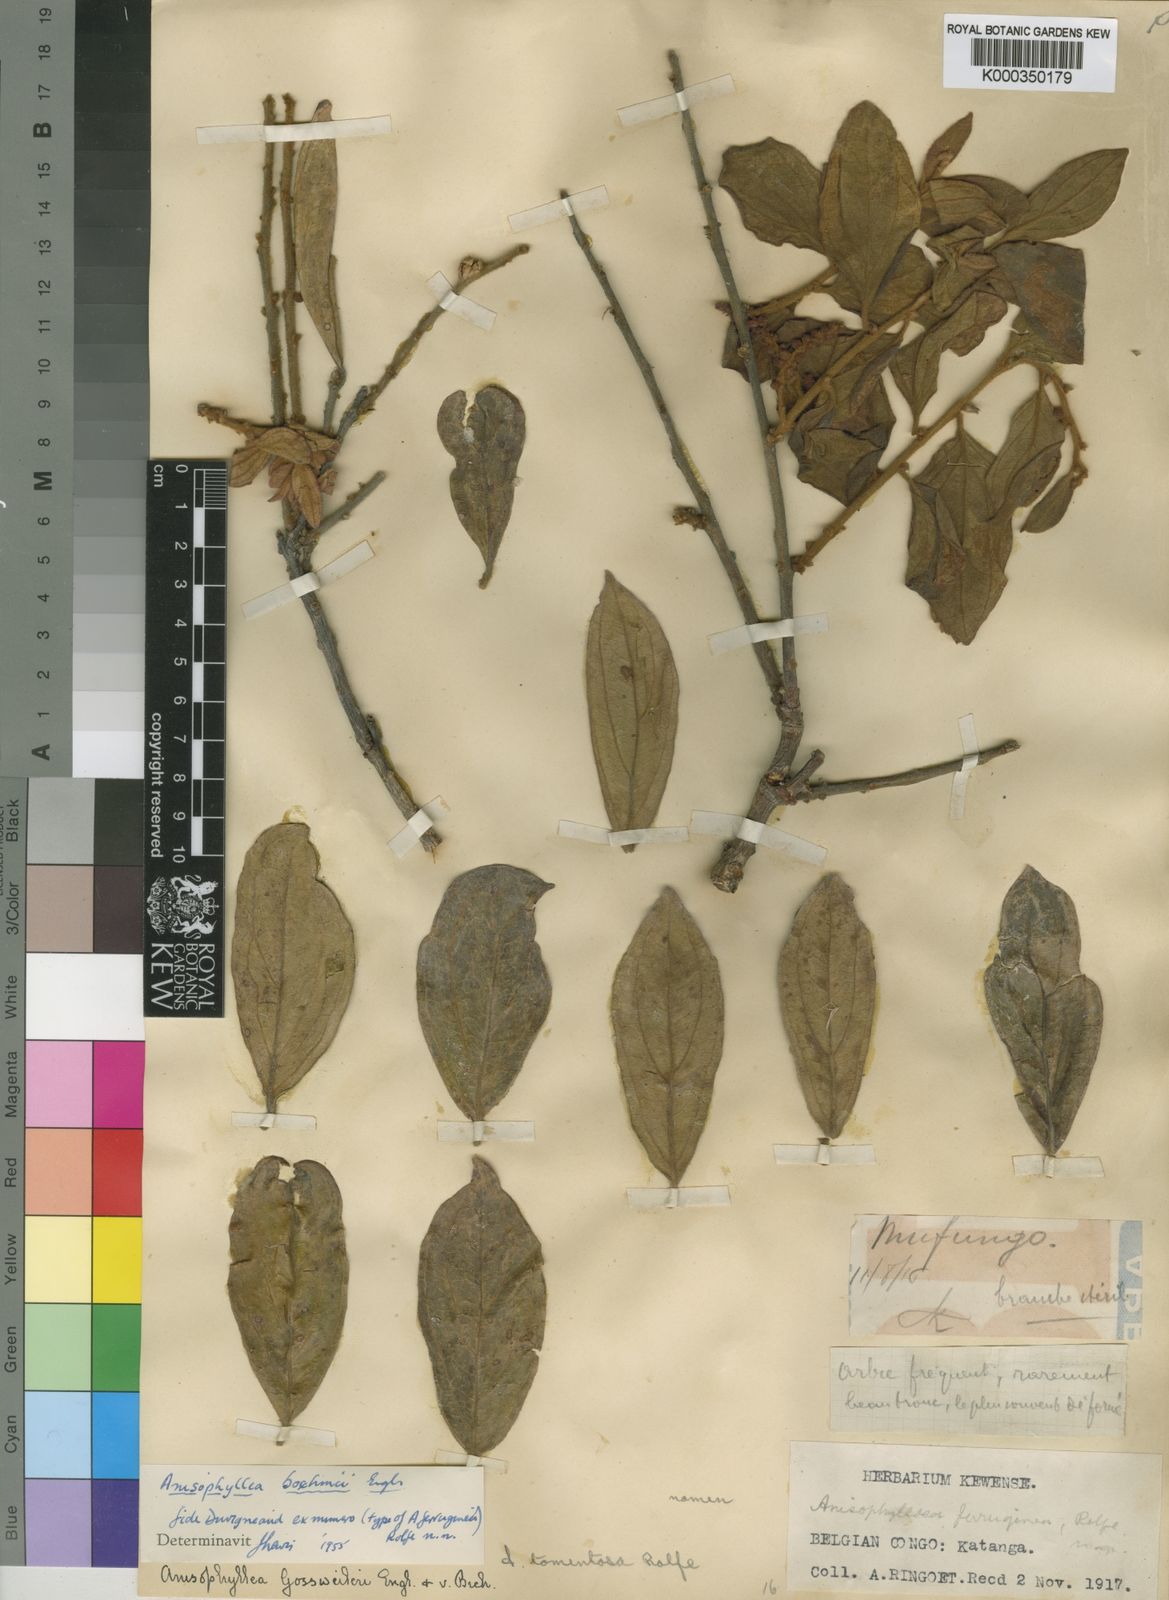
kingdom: Plantae
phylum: Tracheophyta
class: Magnoliopsida
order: Cucurbitales
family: Anisophylleaceae
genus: Anisophyllea
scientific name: Anisophyllea boehmii
